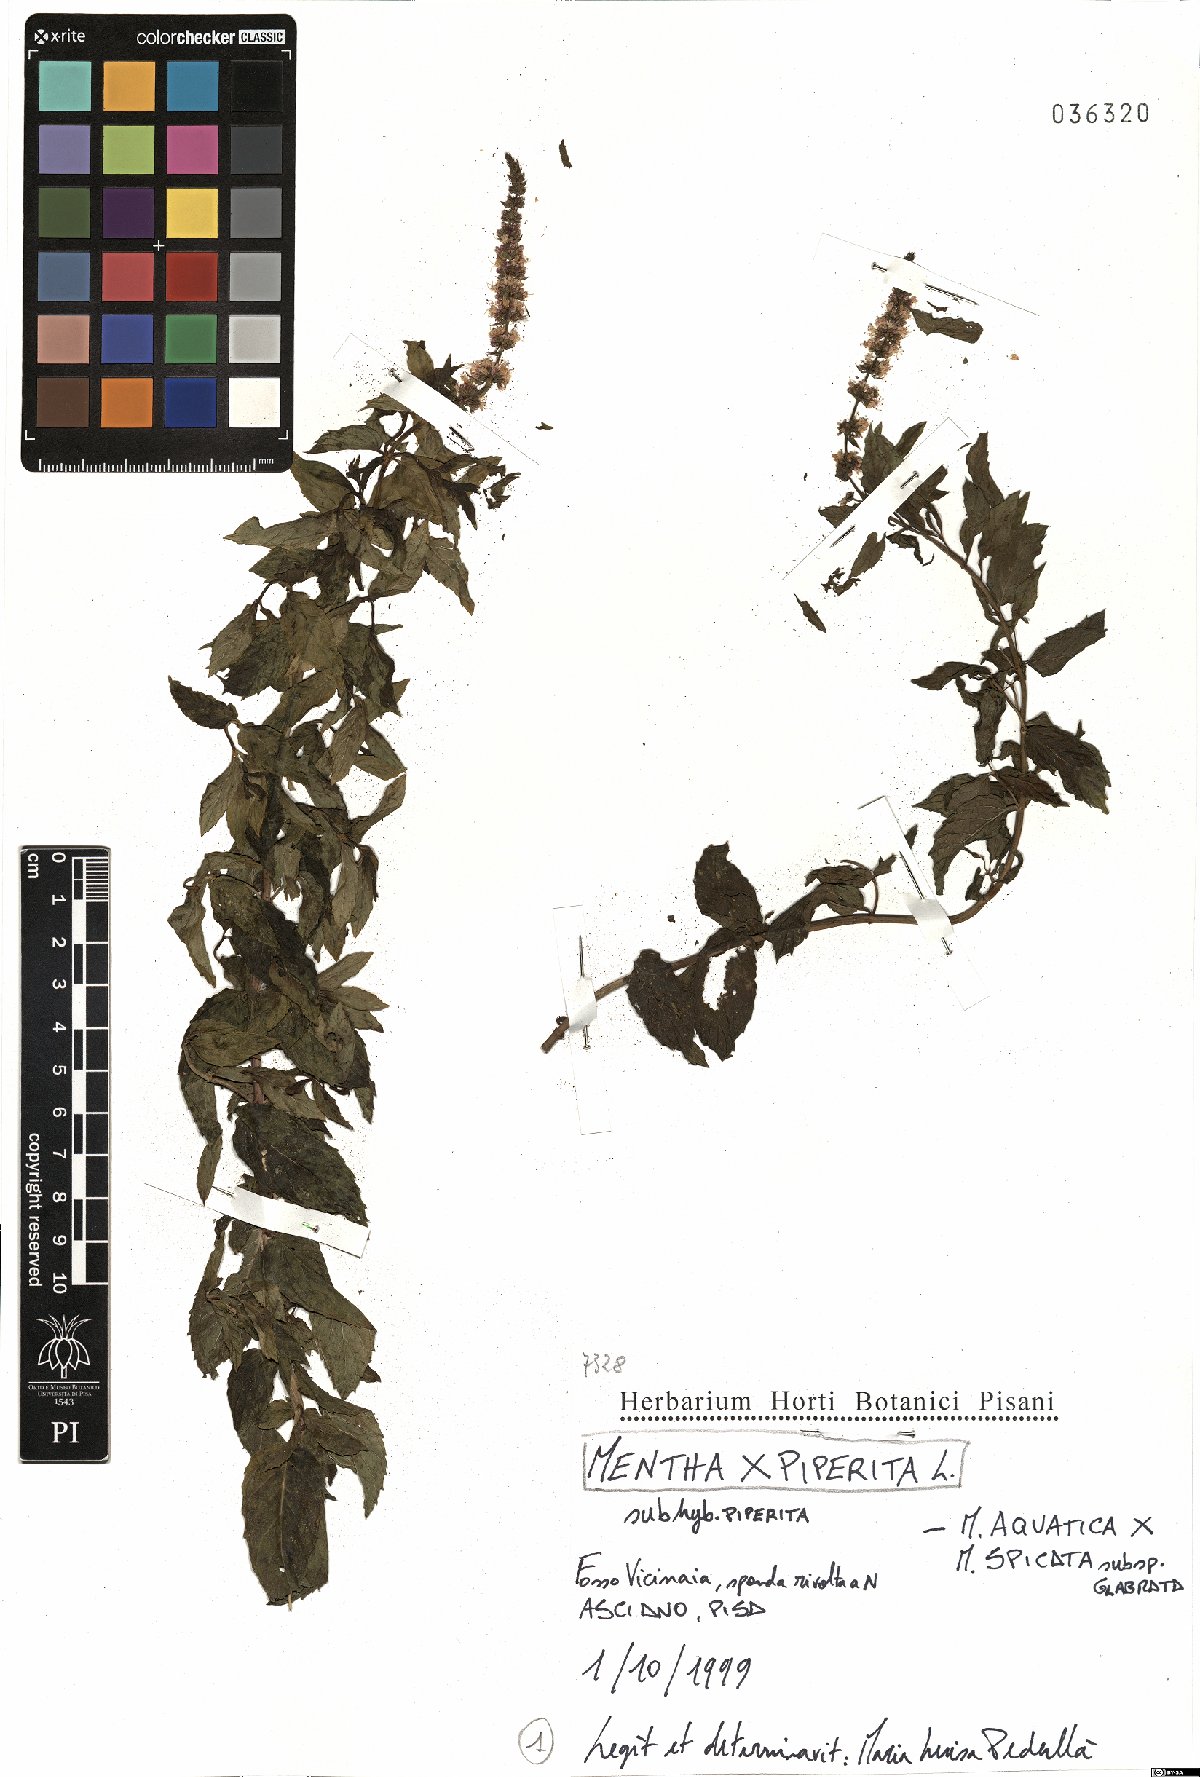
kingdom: Plantae
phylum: Tracheophyta
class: Magnoliopsida
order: Lamiales
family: Lamiaceae
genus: Mentha
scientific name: Mentha piperita
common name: Peppermint
